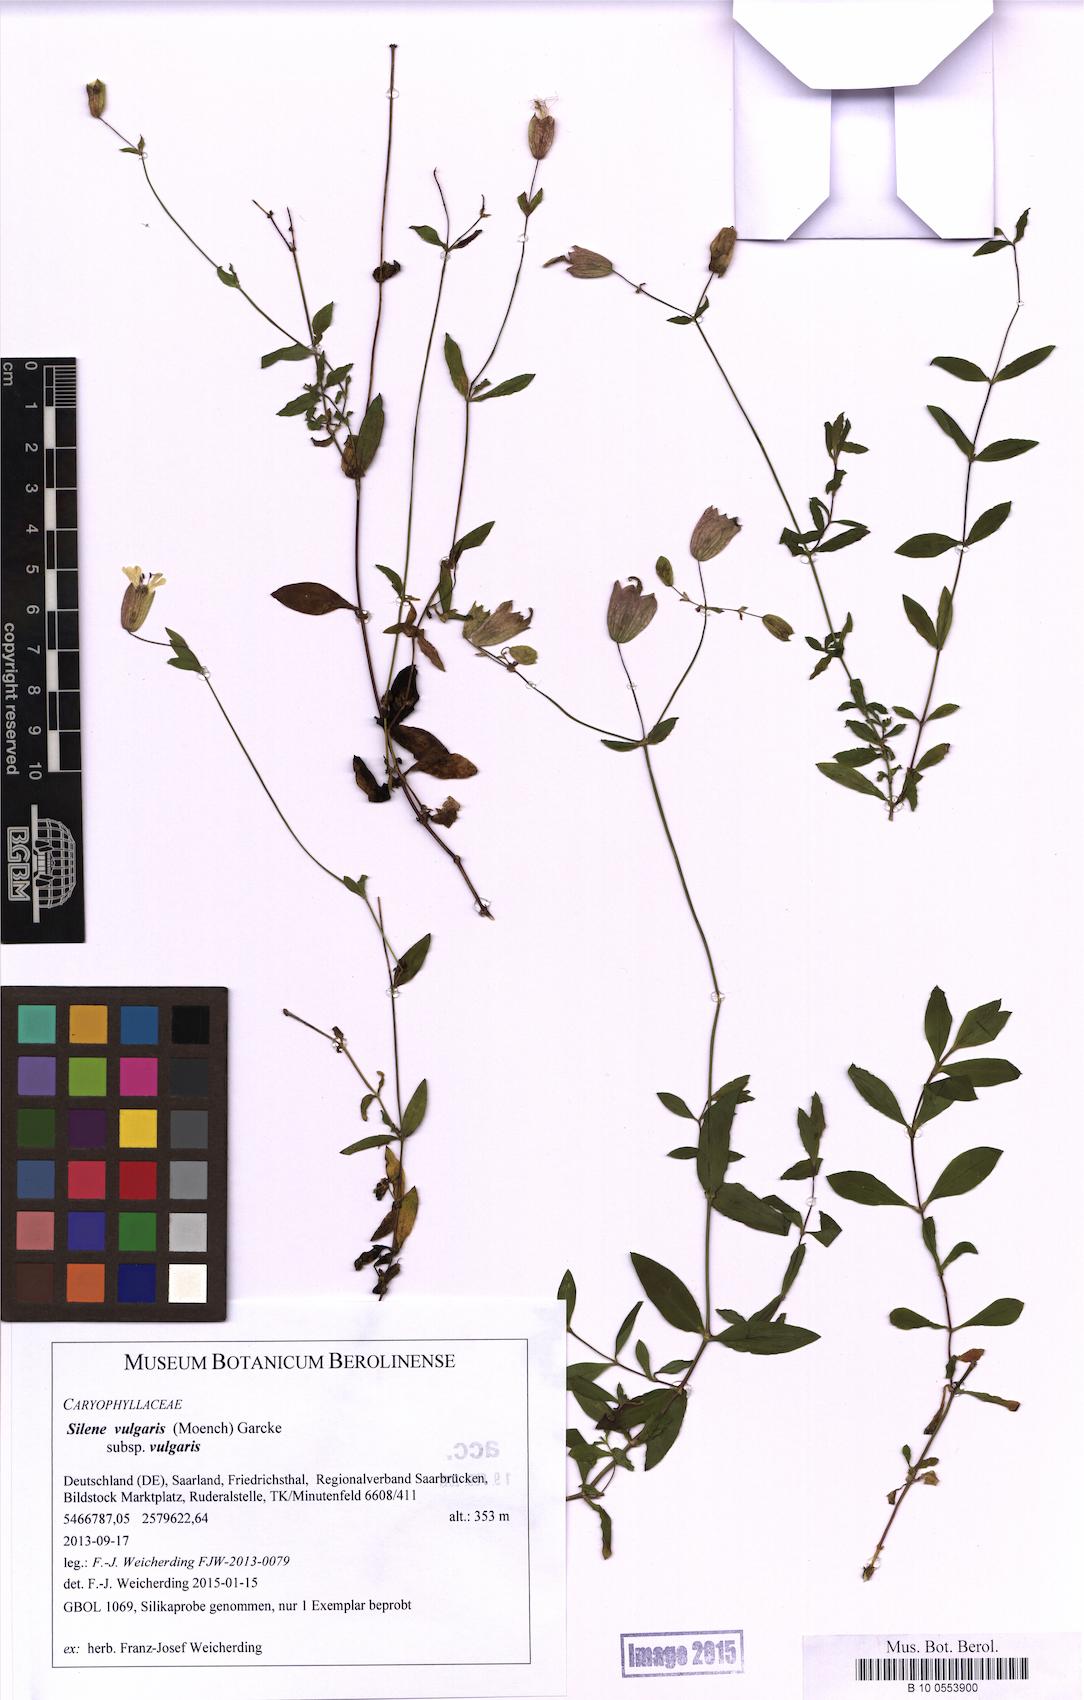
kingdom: Plantae
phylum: Tracheophyta
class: Magnoliopsida
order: Caryophyllales
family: Caryophyllaceae
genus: Silene
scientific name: Silene vulgaris
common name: Bladder campion
